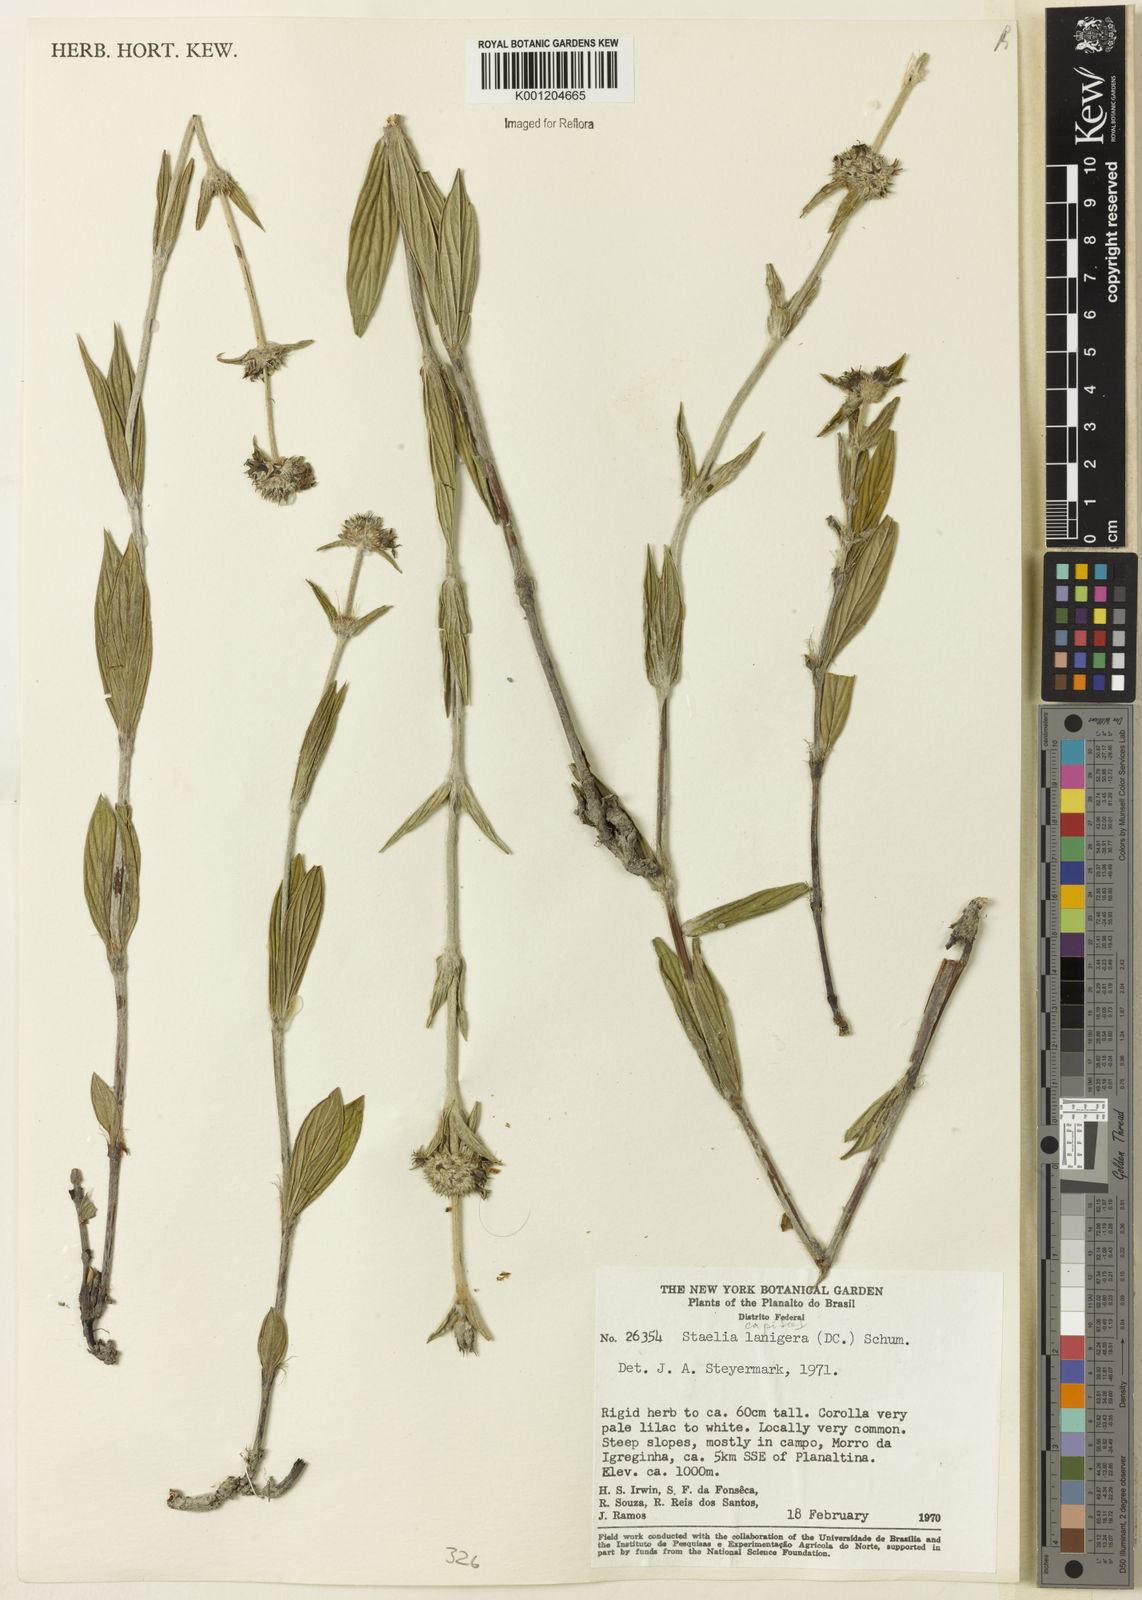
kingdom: Plantae
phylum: Tracheophyta
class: Magnoliopsida
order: Gentianales
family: Rubiaceae
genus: Planaltina
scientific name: Planaltina capitata
